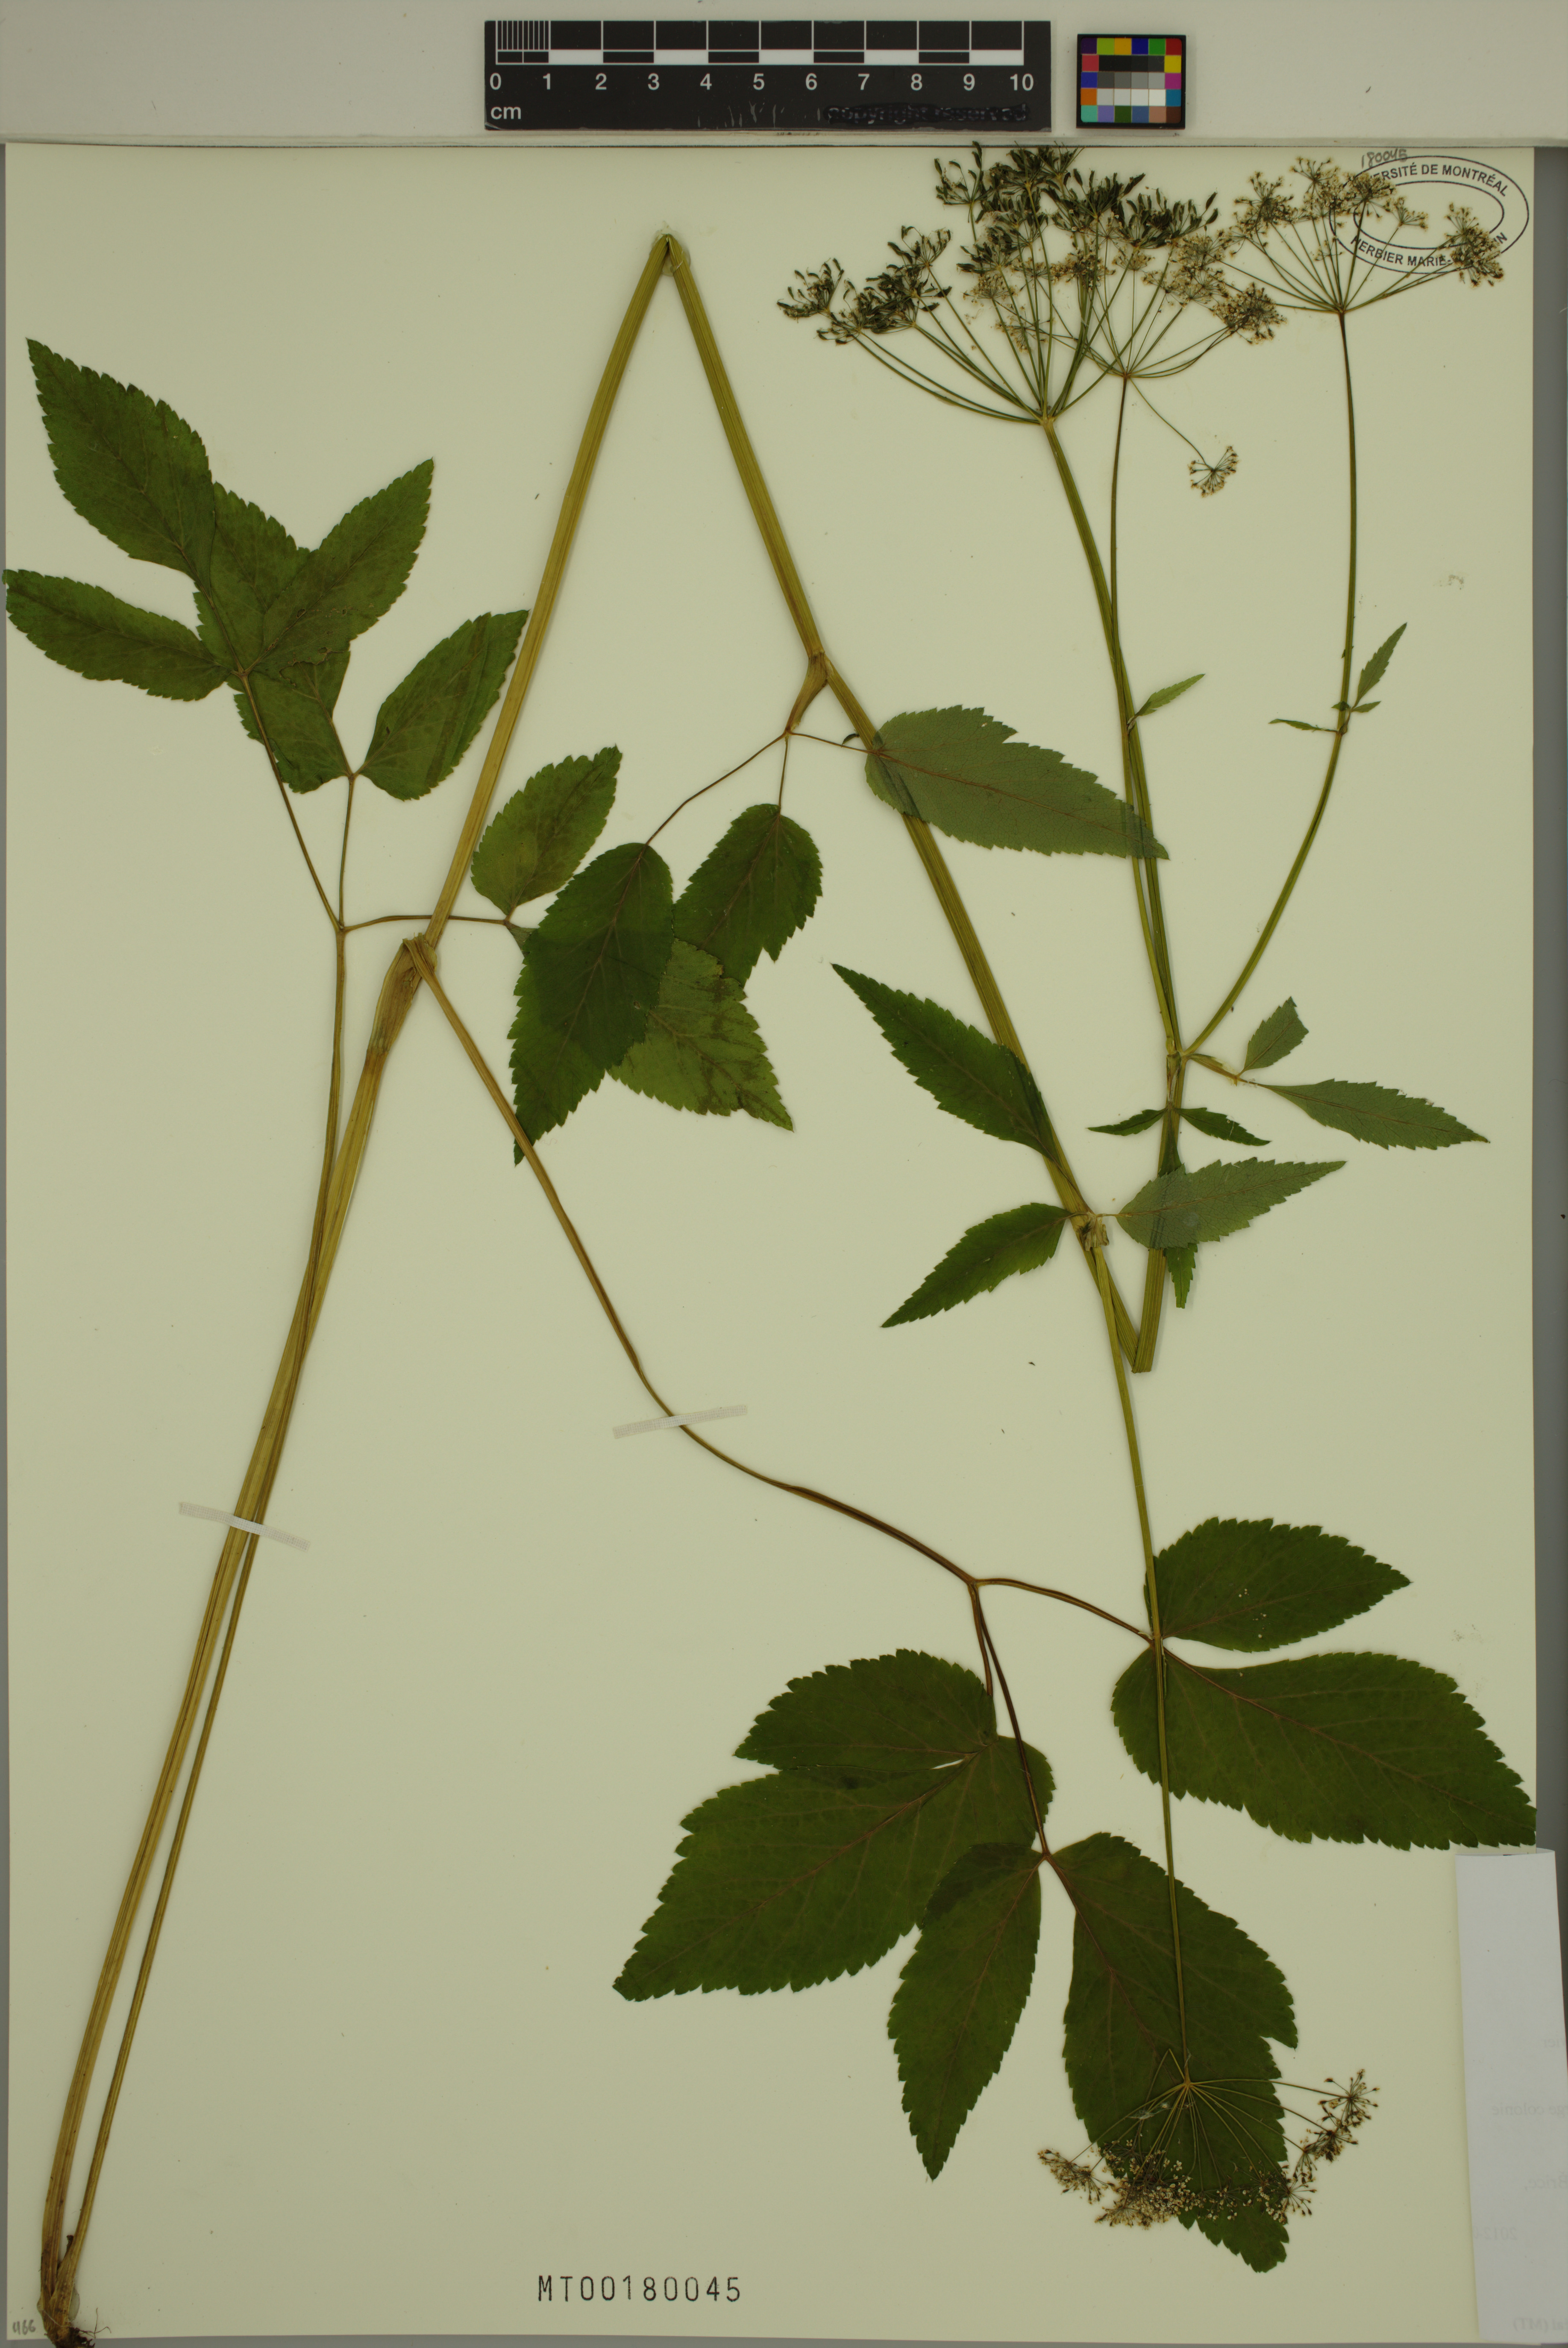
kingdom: Plantae
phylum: Tracheophyta
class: Magnoliopsida
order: Apiales
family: Apiaceae
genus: Aegopodium
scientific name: Aegopodium podagraria
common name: Ground-elder
